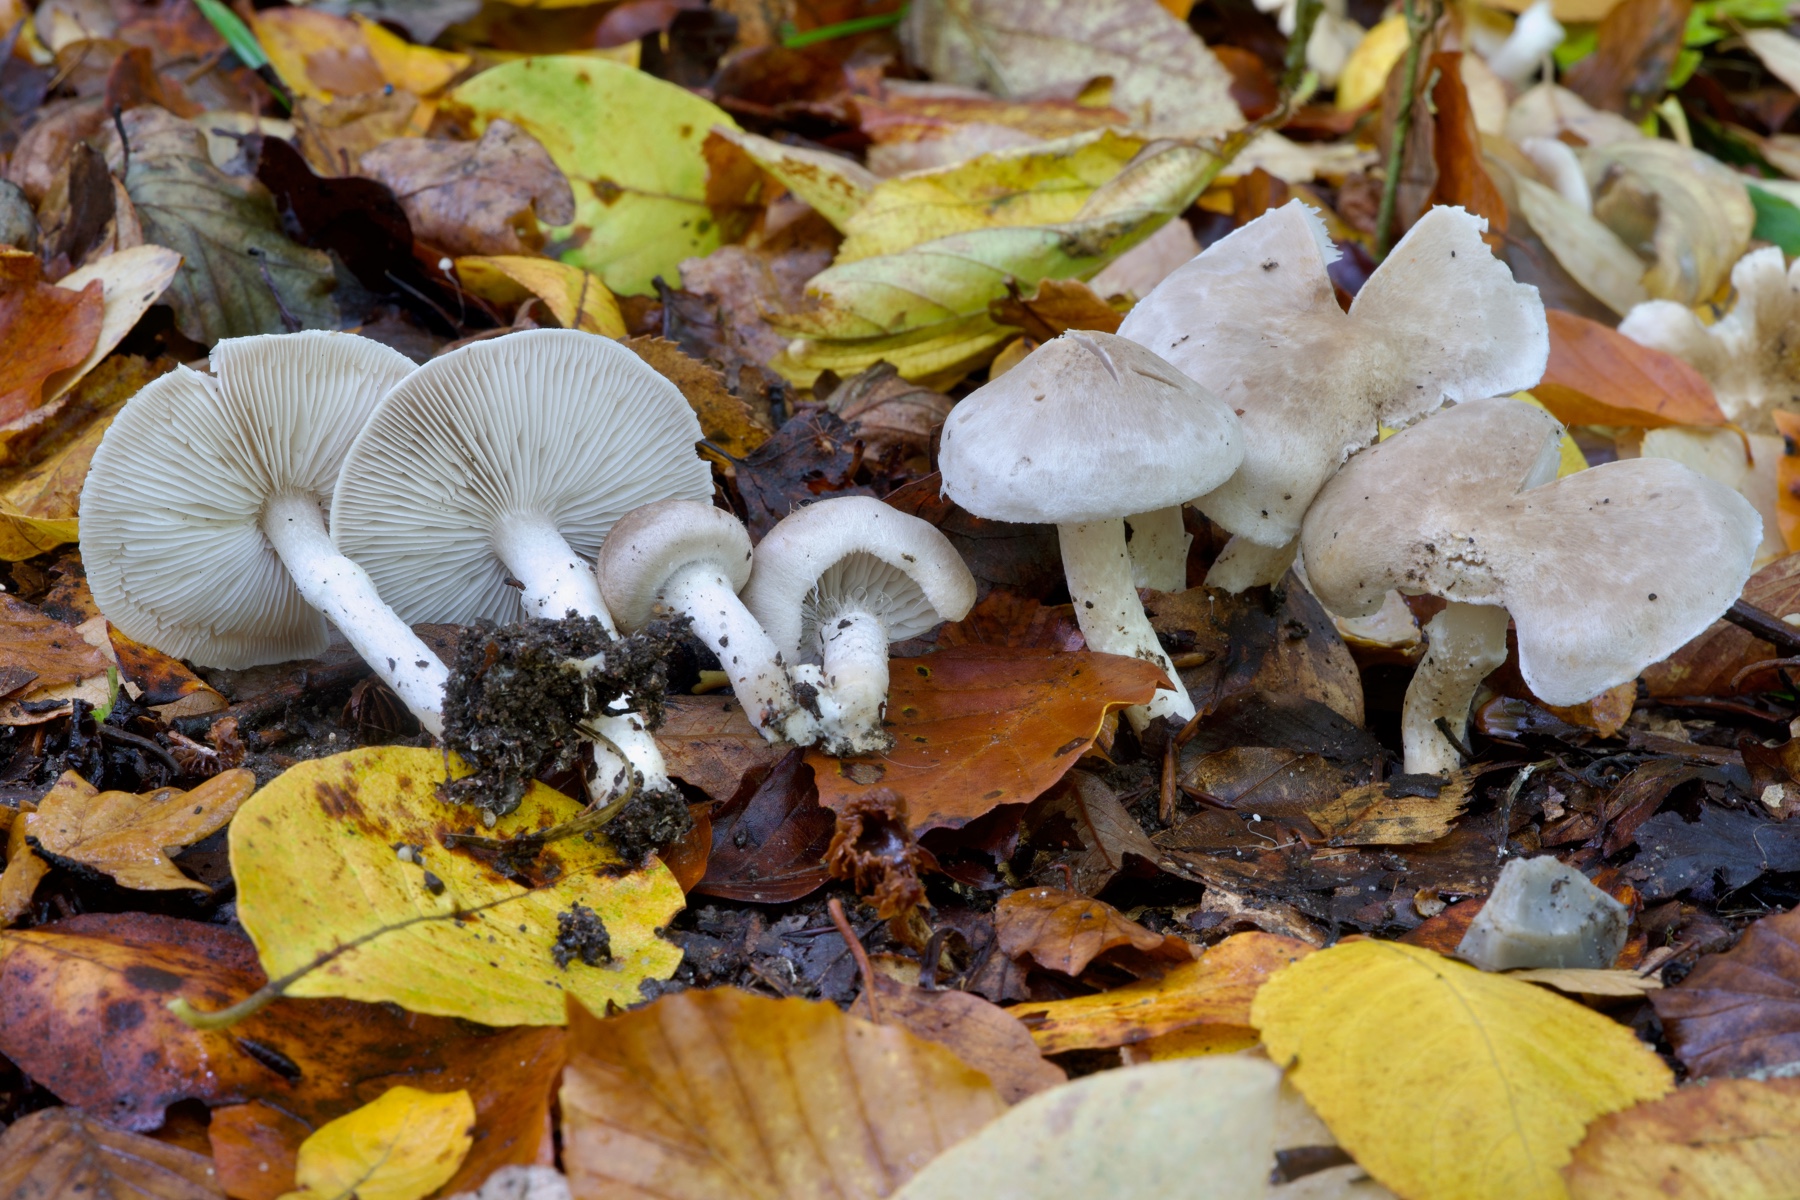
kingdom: Fungi
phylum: Basidiomycota
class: Agaricomycetes
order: Agaricales
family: Tricholomataceae
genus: Tricholoma
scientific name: Tricholoma cingulatum
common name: ring-ridderhat
